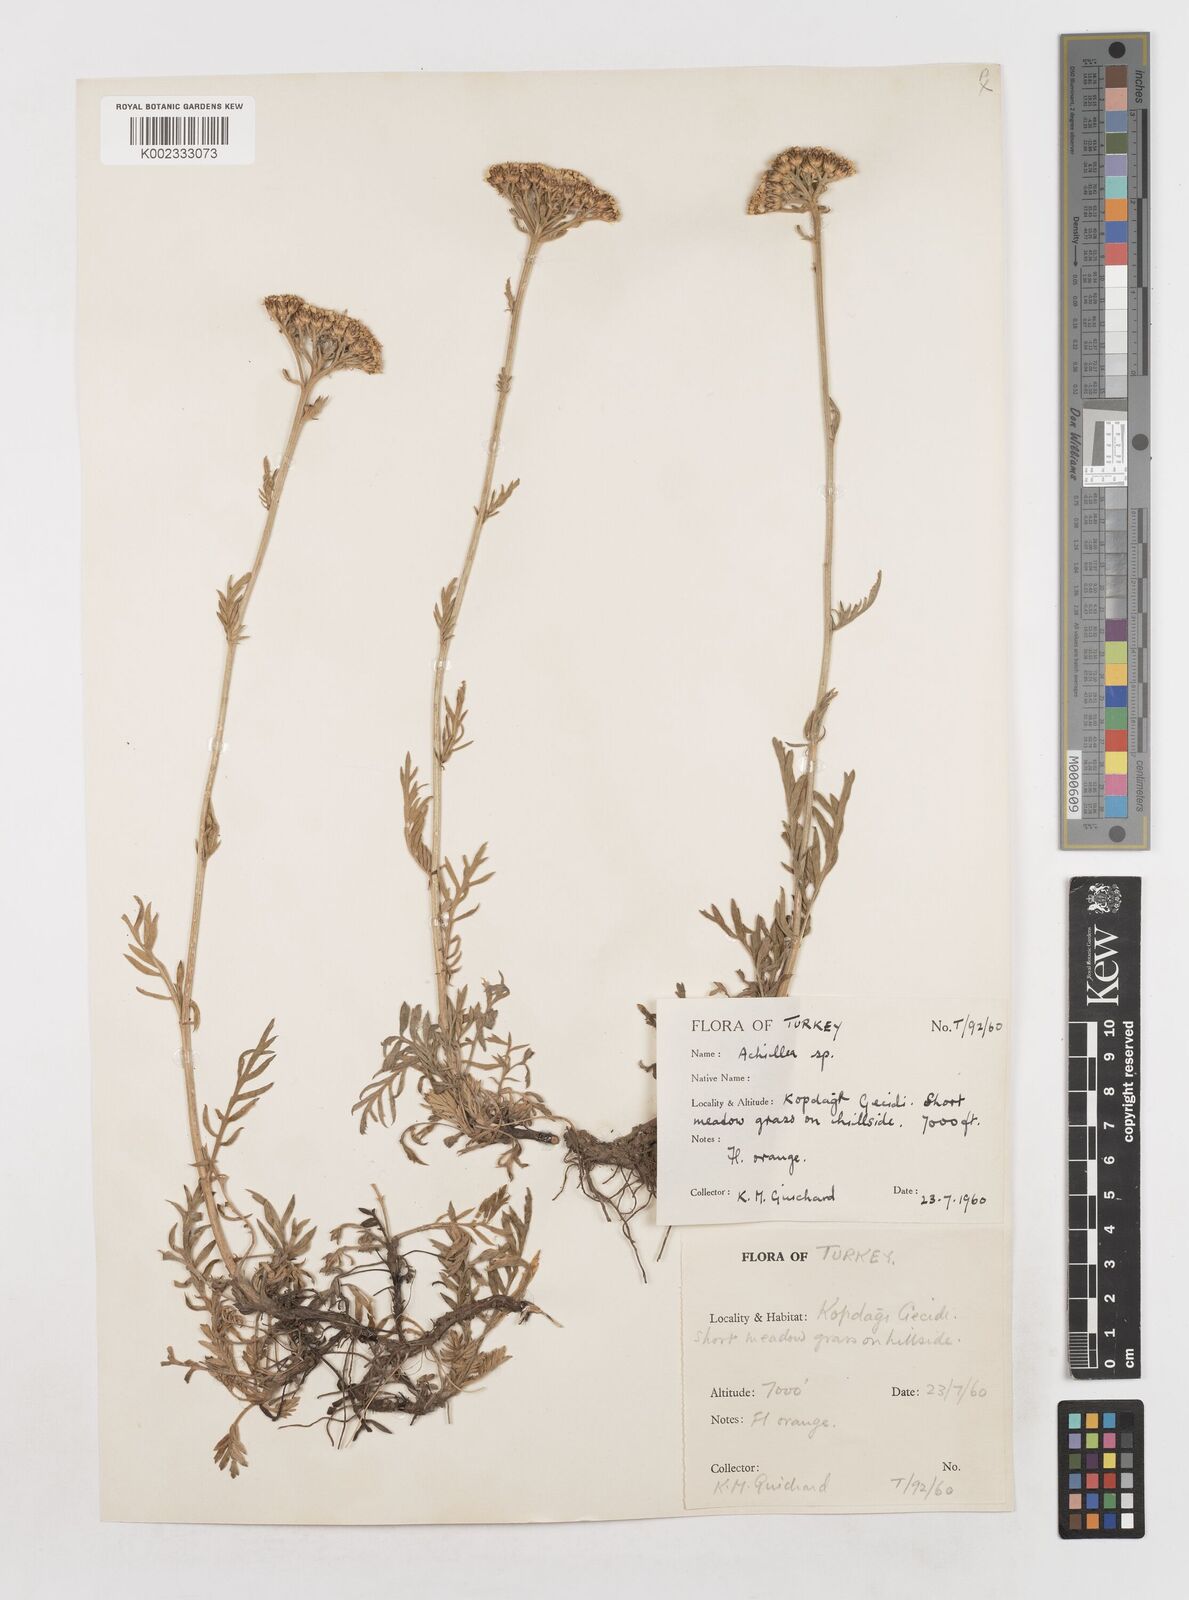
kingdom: Plantae
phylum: Tracheophyta
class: Magnoliopsida
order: Asterales
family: Asteraceae
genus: Achillea
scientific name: Achillea
